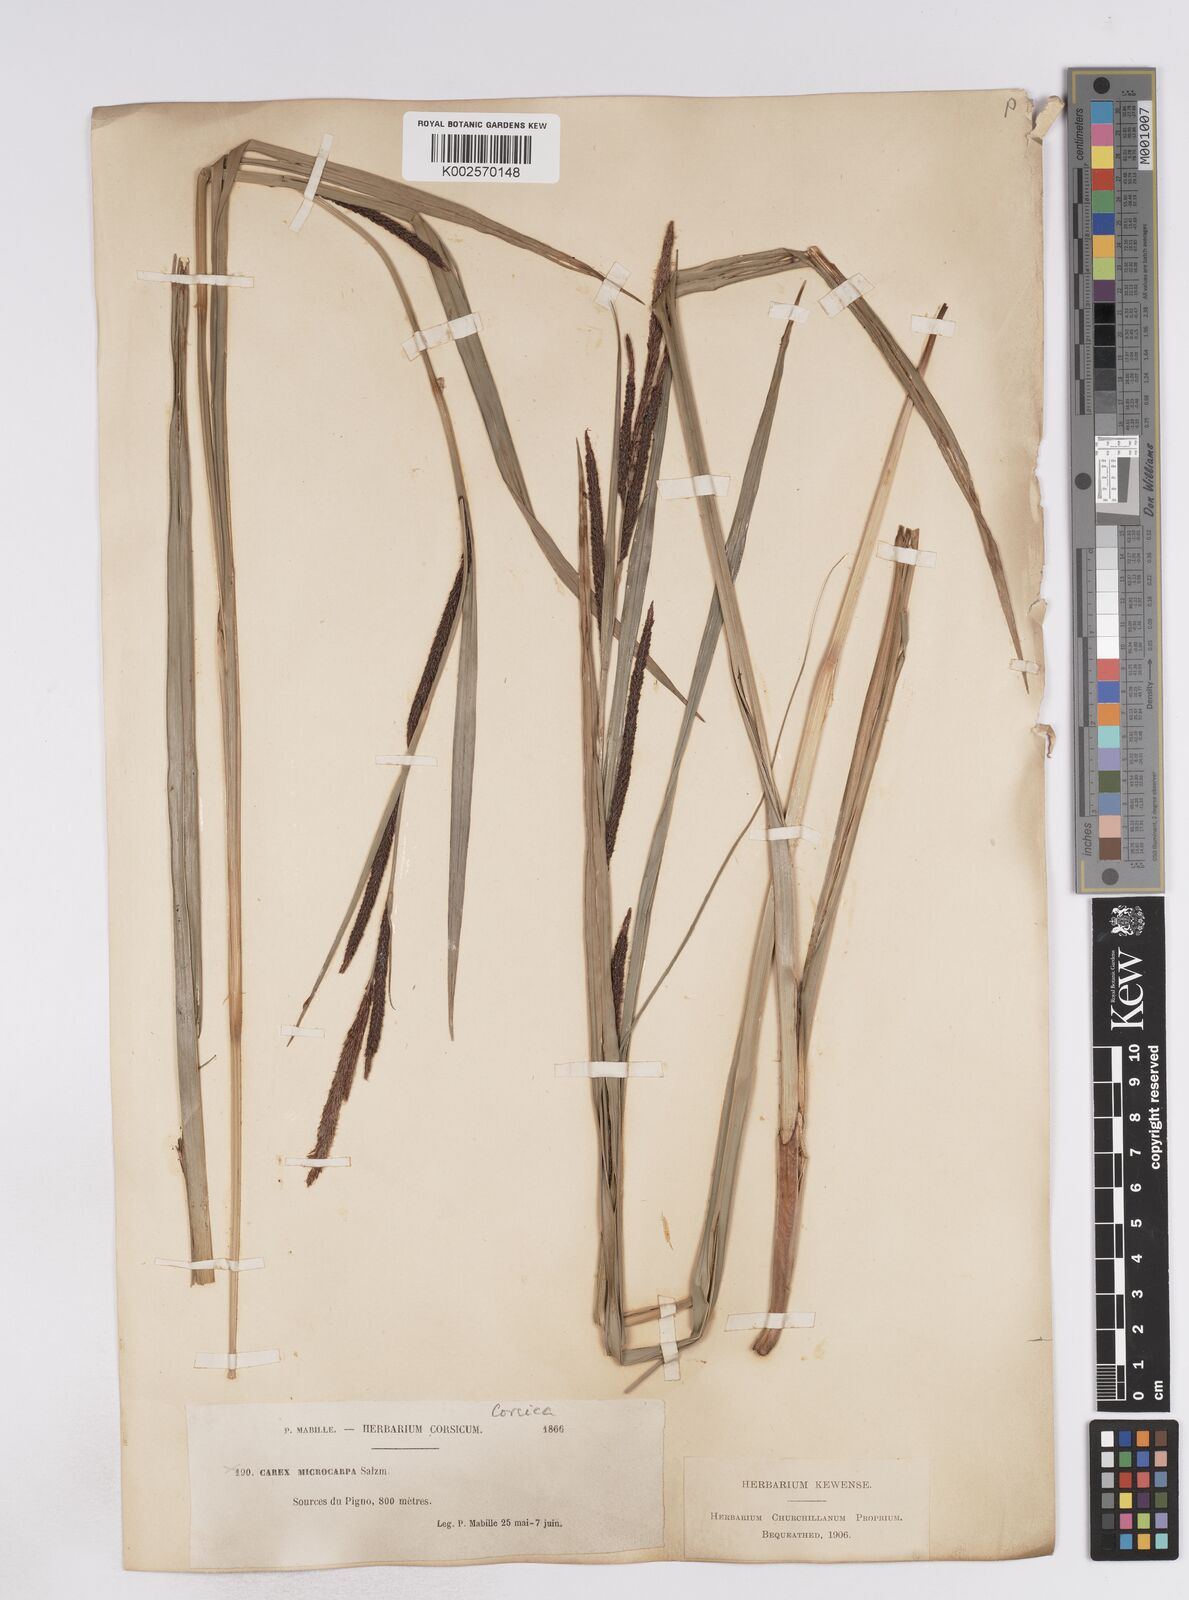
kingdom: Plantae
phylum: Tracheophyta
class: Liliopsida
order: Poales
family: Cyperaceae
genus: Carex
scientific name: Carex microcarpa
